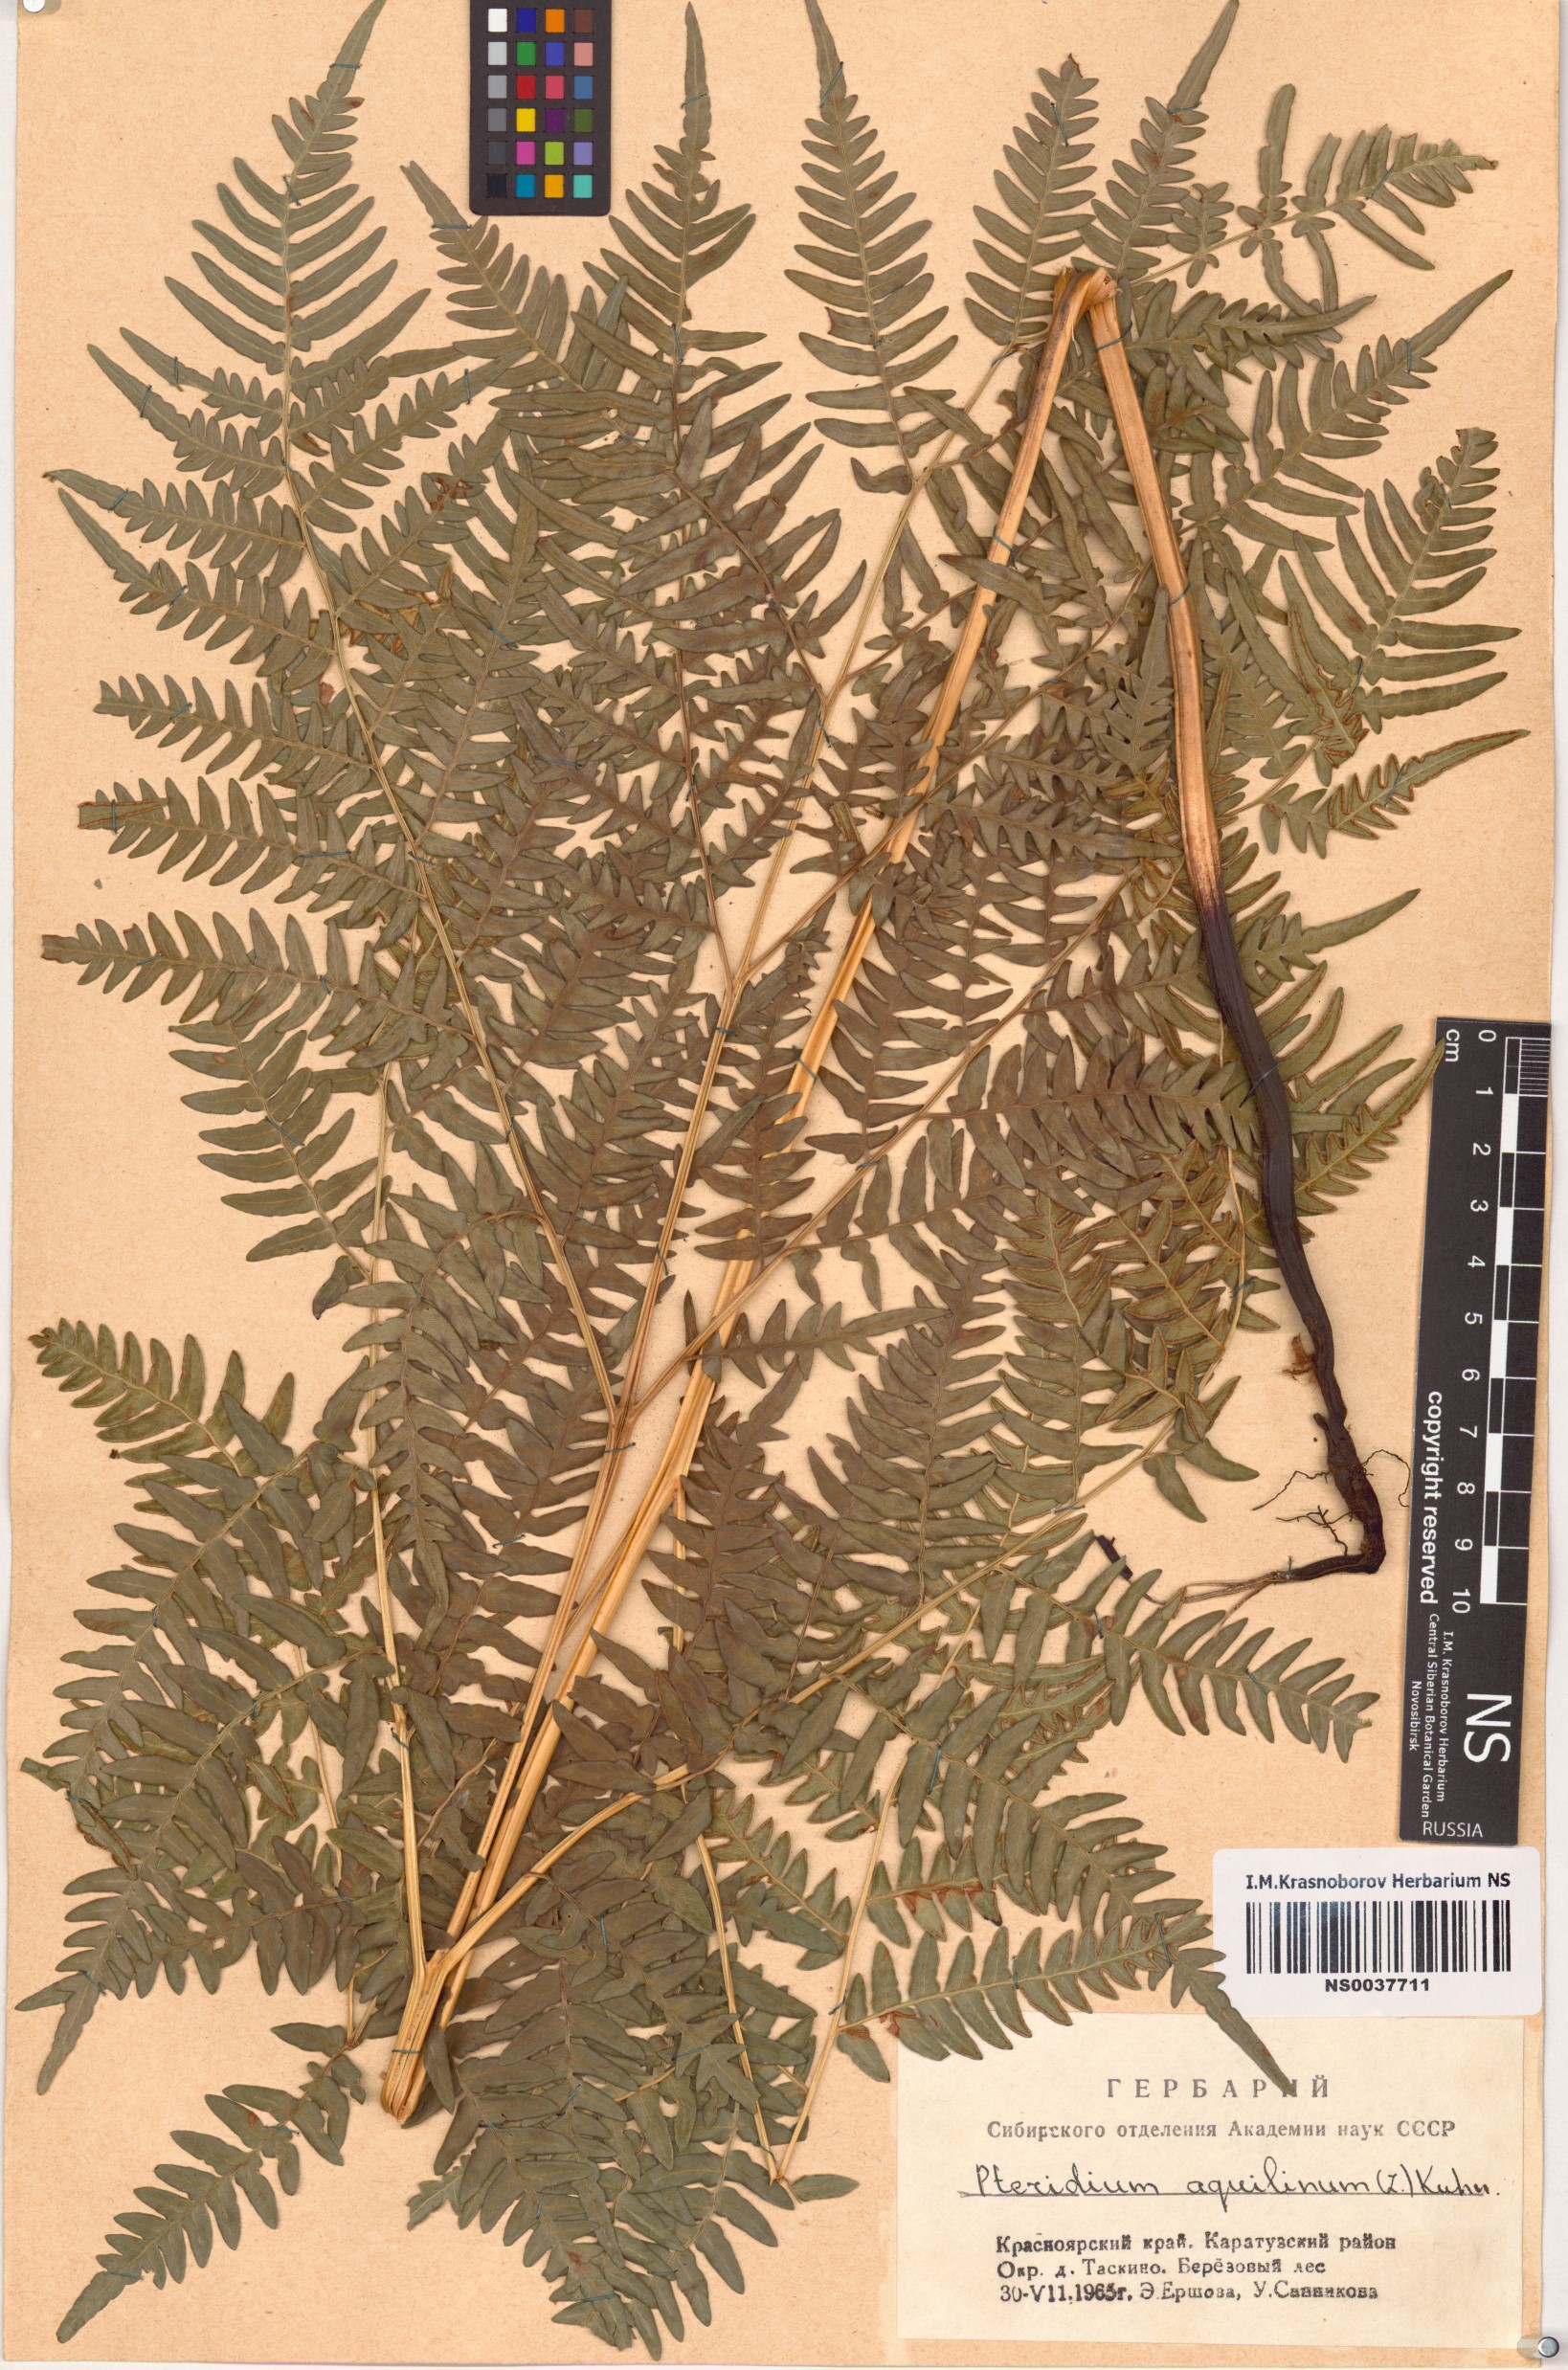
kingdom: Plantae
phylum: Tracheophyta
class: Polypodiopsida
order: Polypodiales
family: Dennstaedtiaceae
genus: Pteridium
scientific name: Pteridium aquilinum
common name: Bracken
